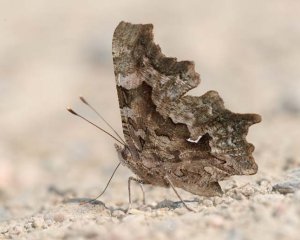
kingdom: Animalia
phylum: Arthropoda
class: Insecta
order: Lepidoptera
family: Nymphalidae
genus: Polygonia
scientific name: Polygonia faunus
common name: Green Comma
